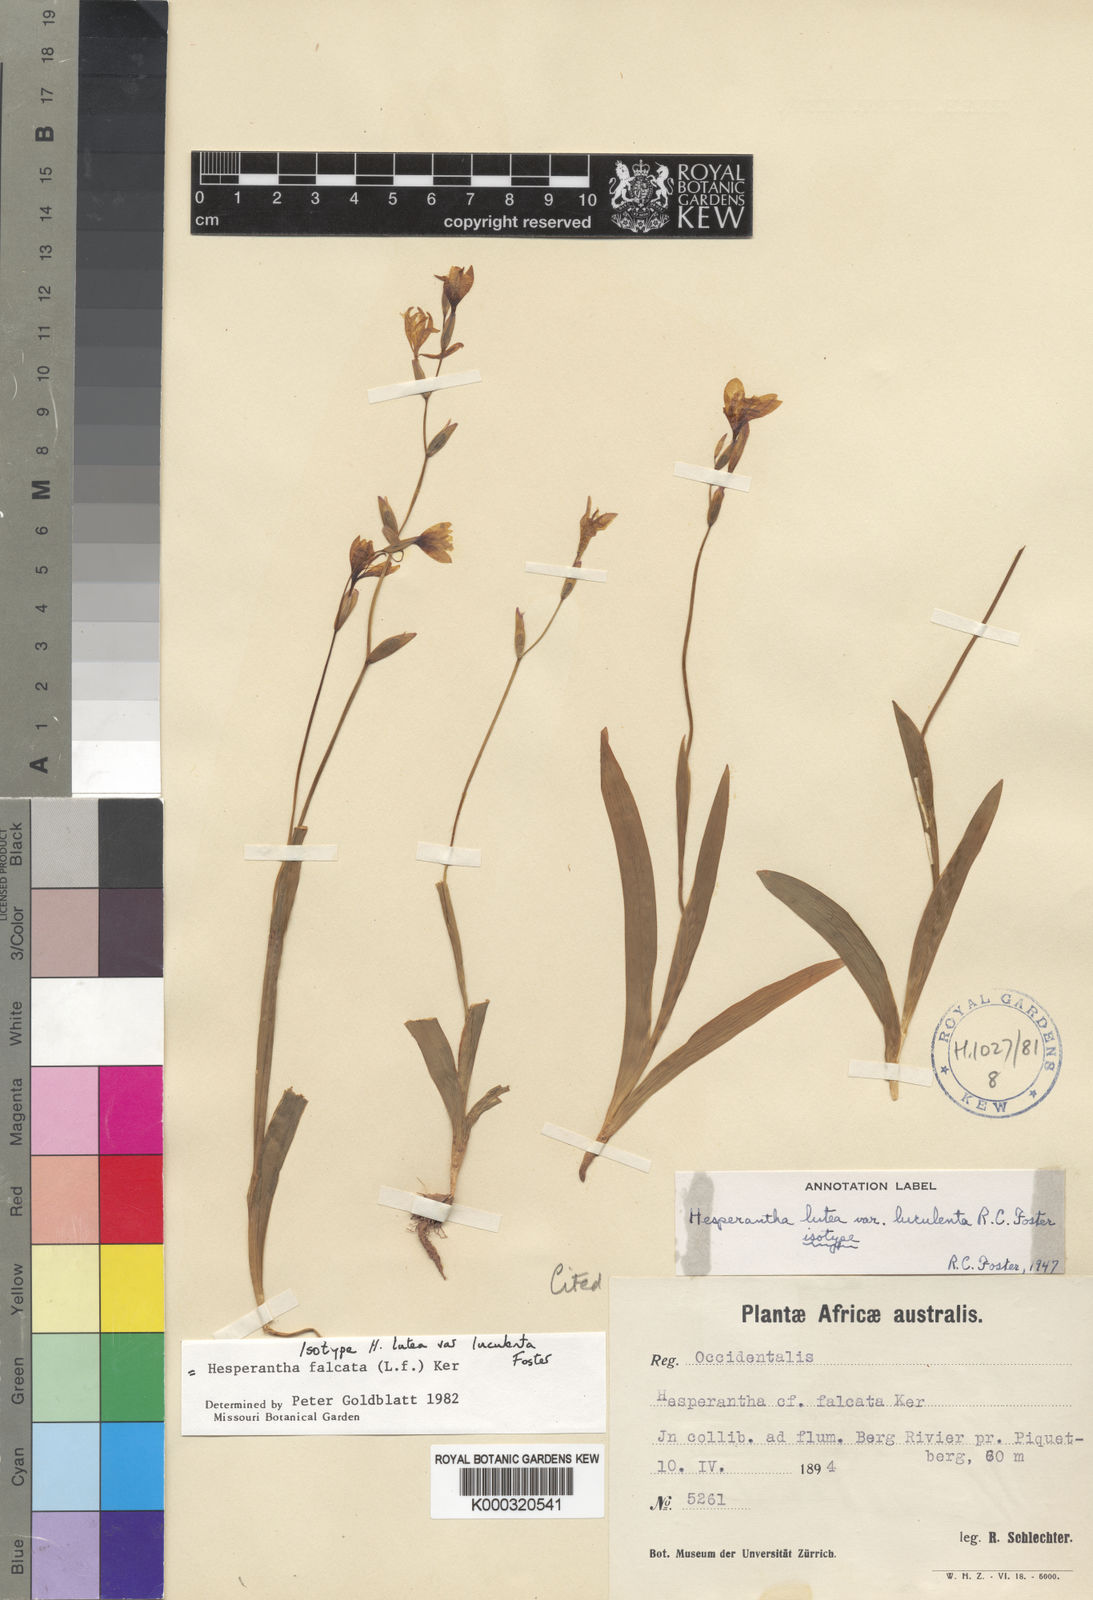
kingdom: Plantae
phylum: Tracheophyta
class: Liliopsida
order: Asparagales
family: Iridaceae
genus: Hesperantha
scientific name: Hesperantha falcata
